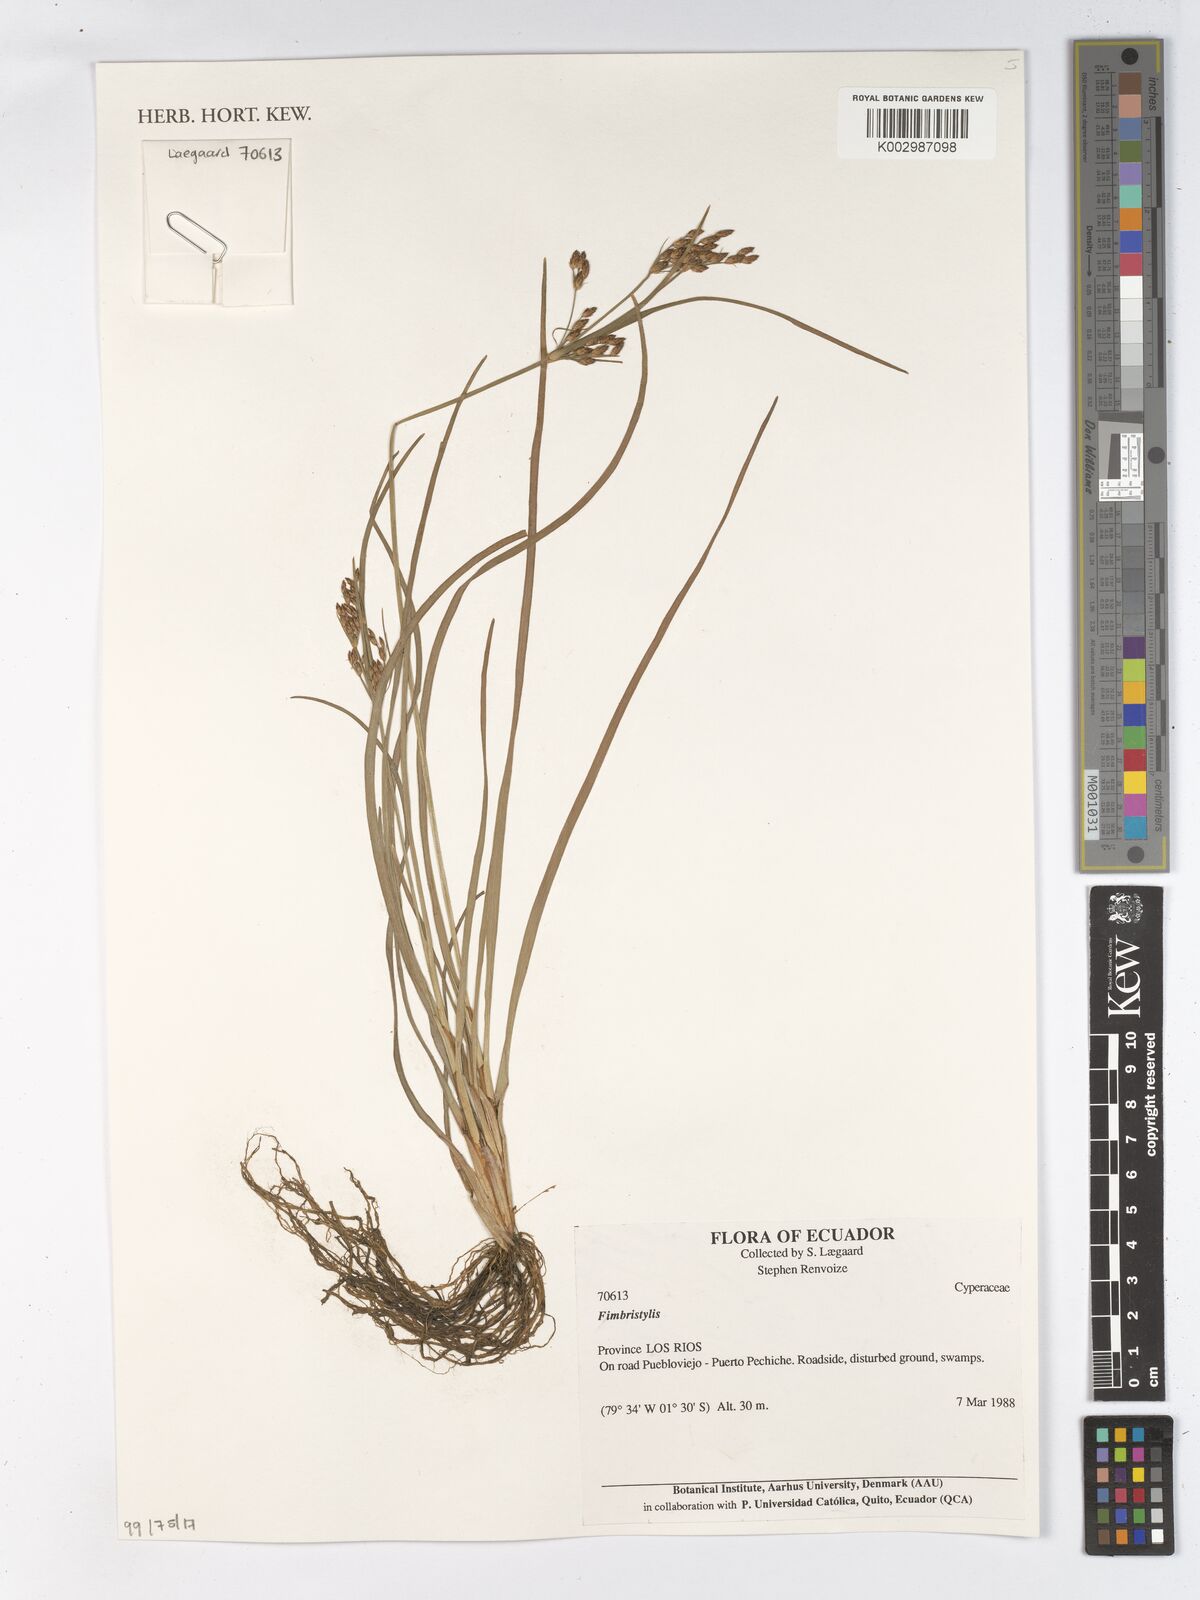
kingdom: Plantae
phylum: Tracheophyta
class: Liliopsida
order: Poales
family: Cyperaceae
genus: Fimbristylis
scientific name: Fimbristylis
